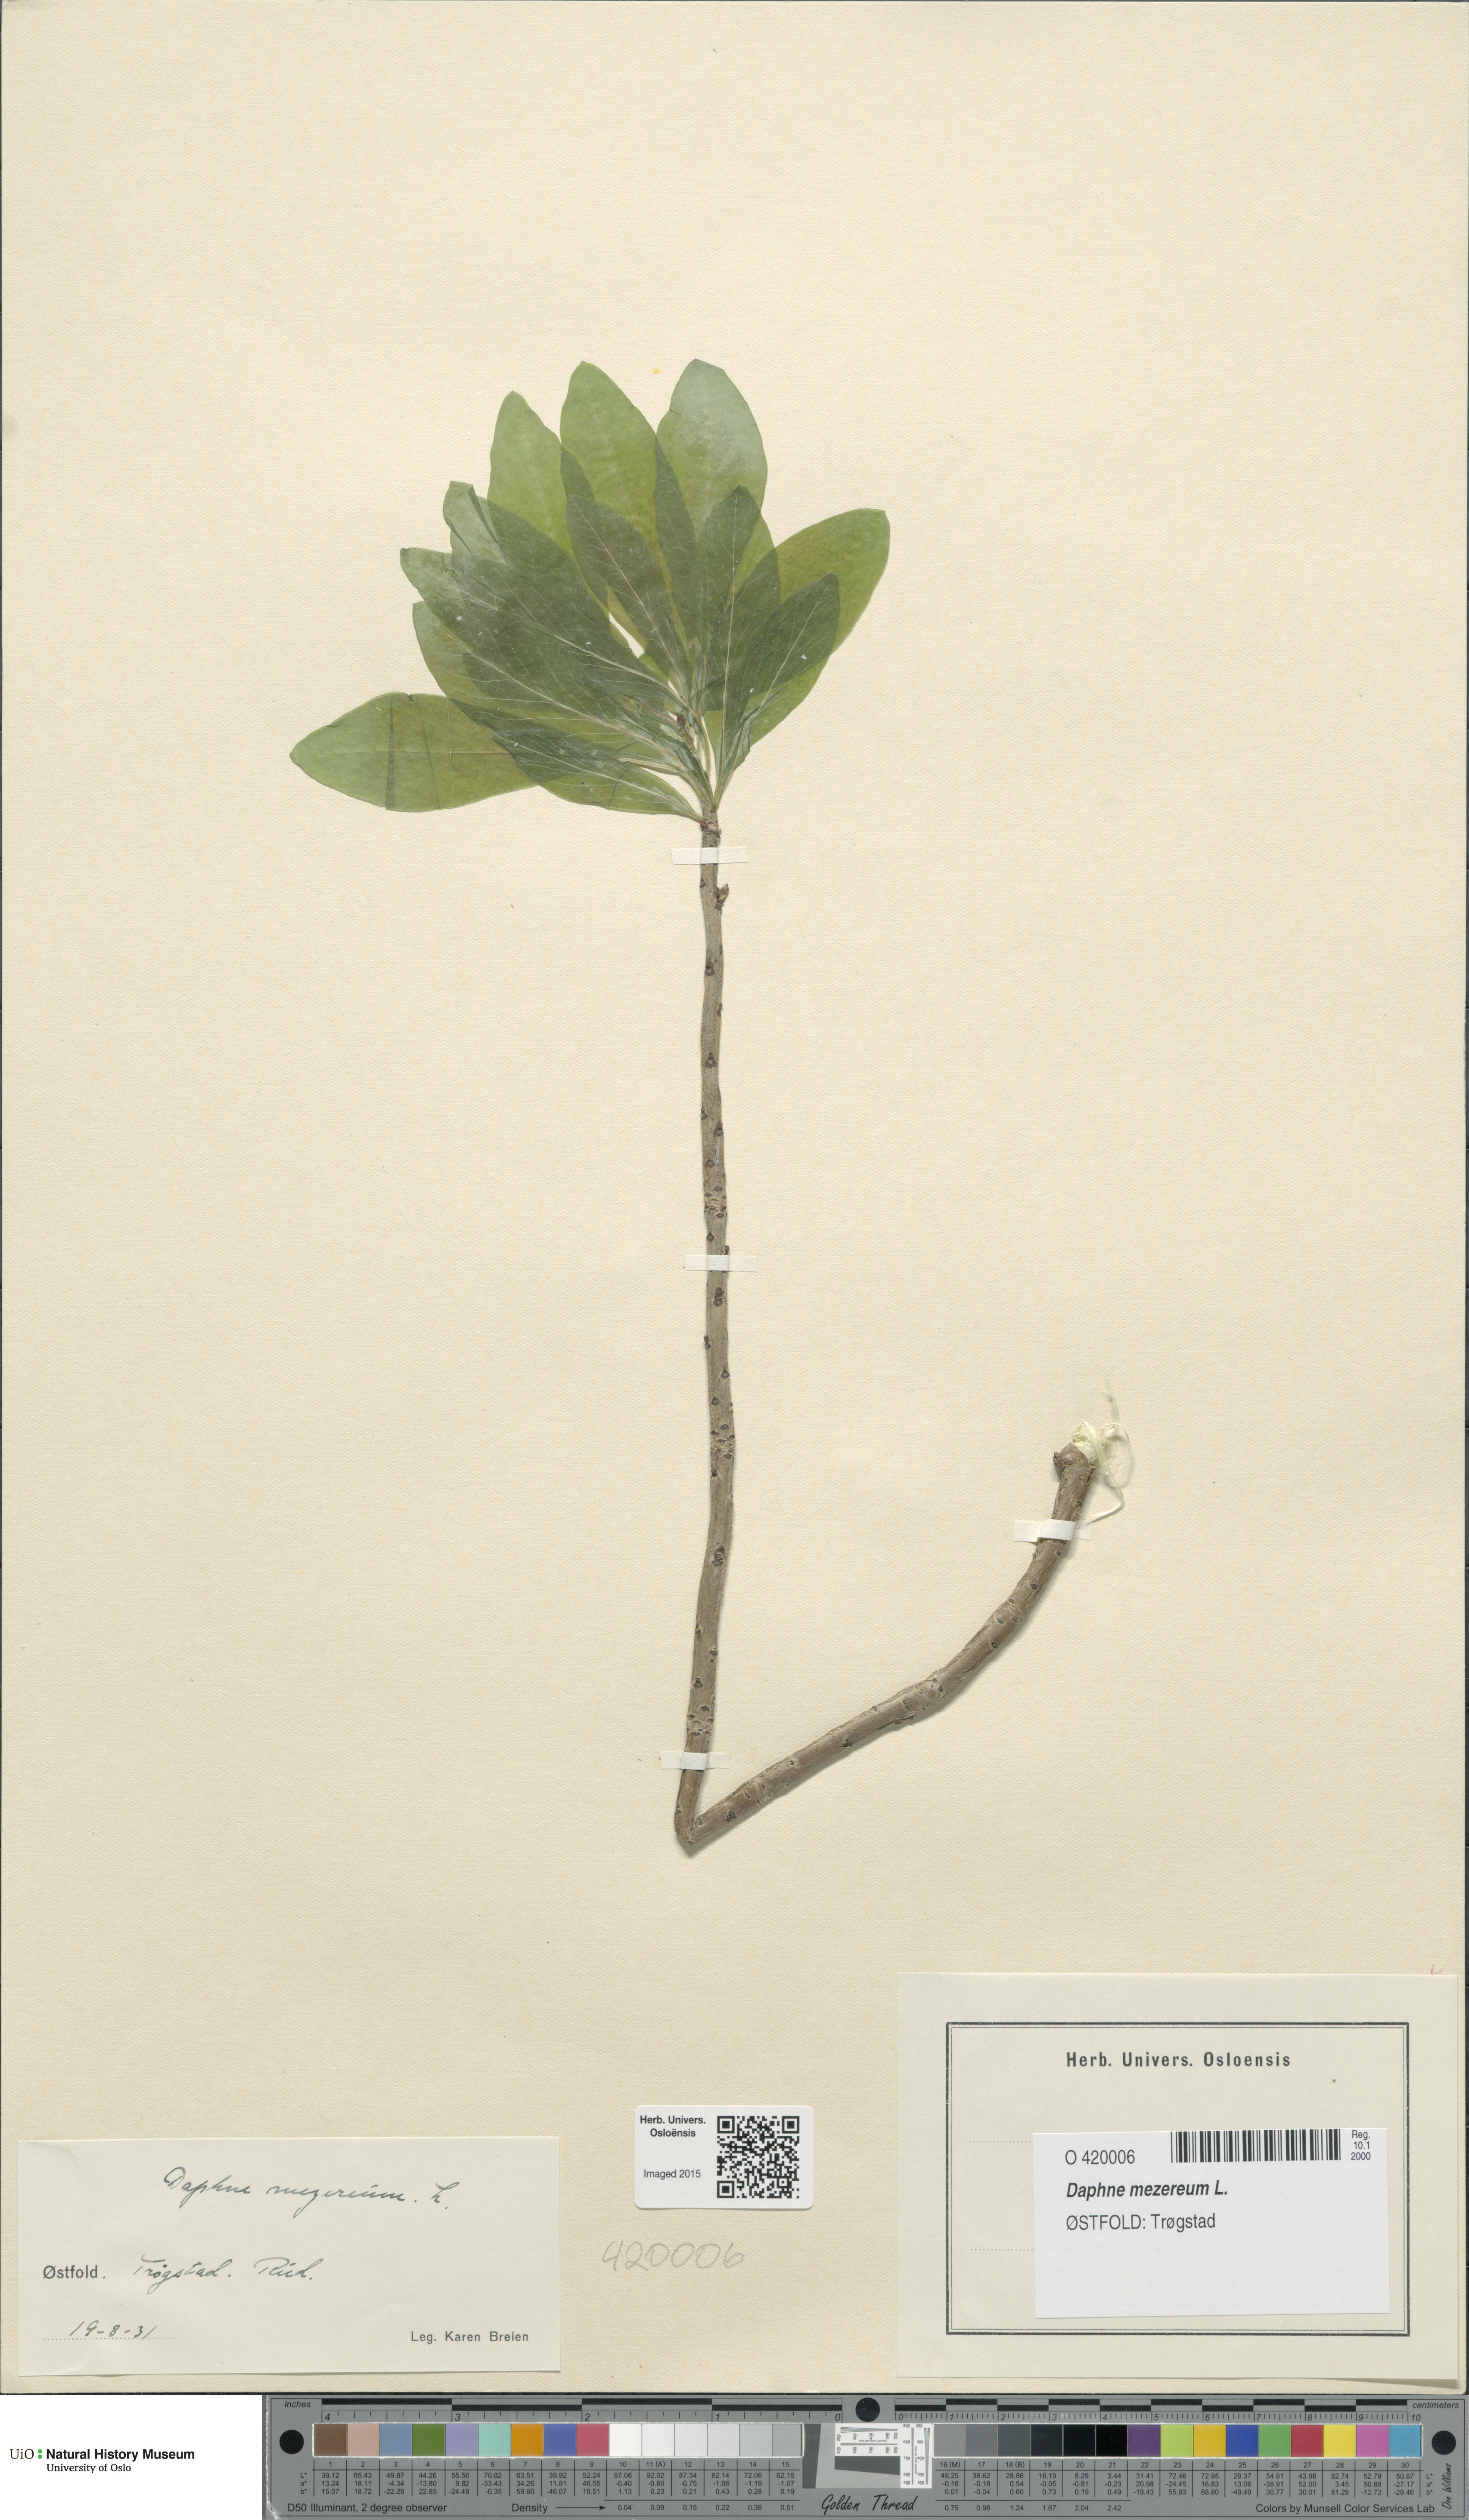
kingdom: Plantae
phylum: Tracheophyta
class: Magnoliopsida
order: Malvales
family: Thymelaeaceae
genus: Daphne
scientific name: Daphne mezereum
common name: Mezereon
